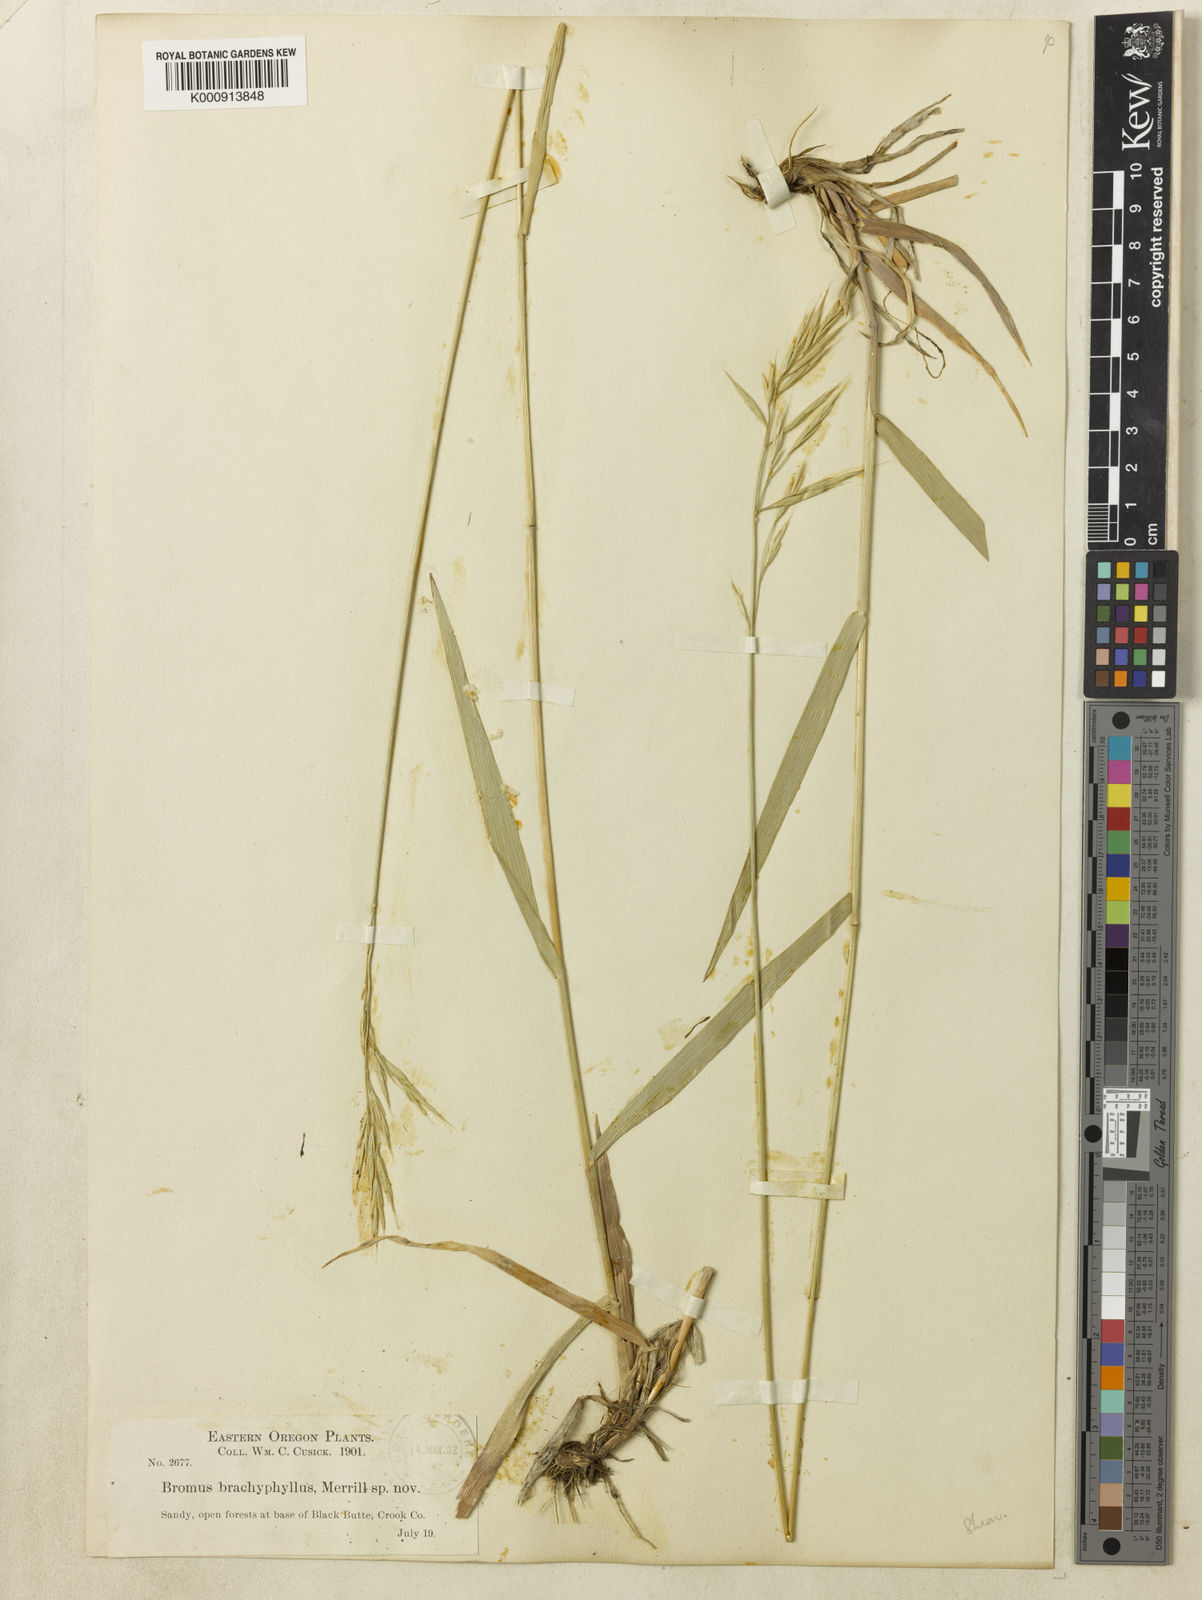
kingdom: Plantae
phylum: Tracheophyta
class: Liliopsida
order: Poales
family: Poaceae
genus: Bromus
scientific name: Bromus orcuttianus
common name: Orcutt's brome
